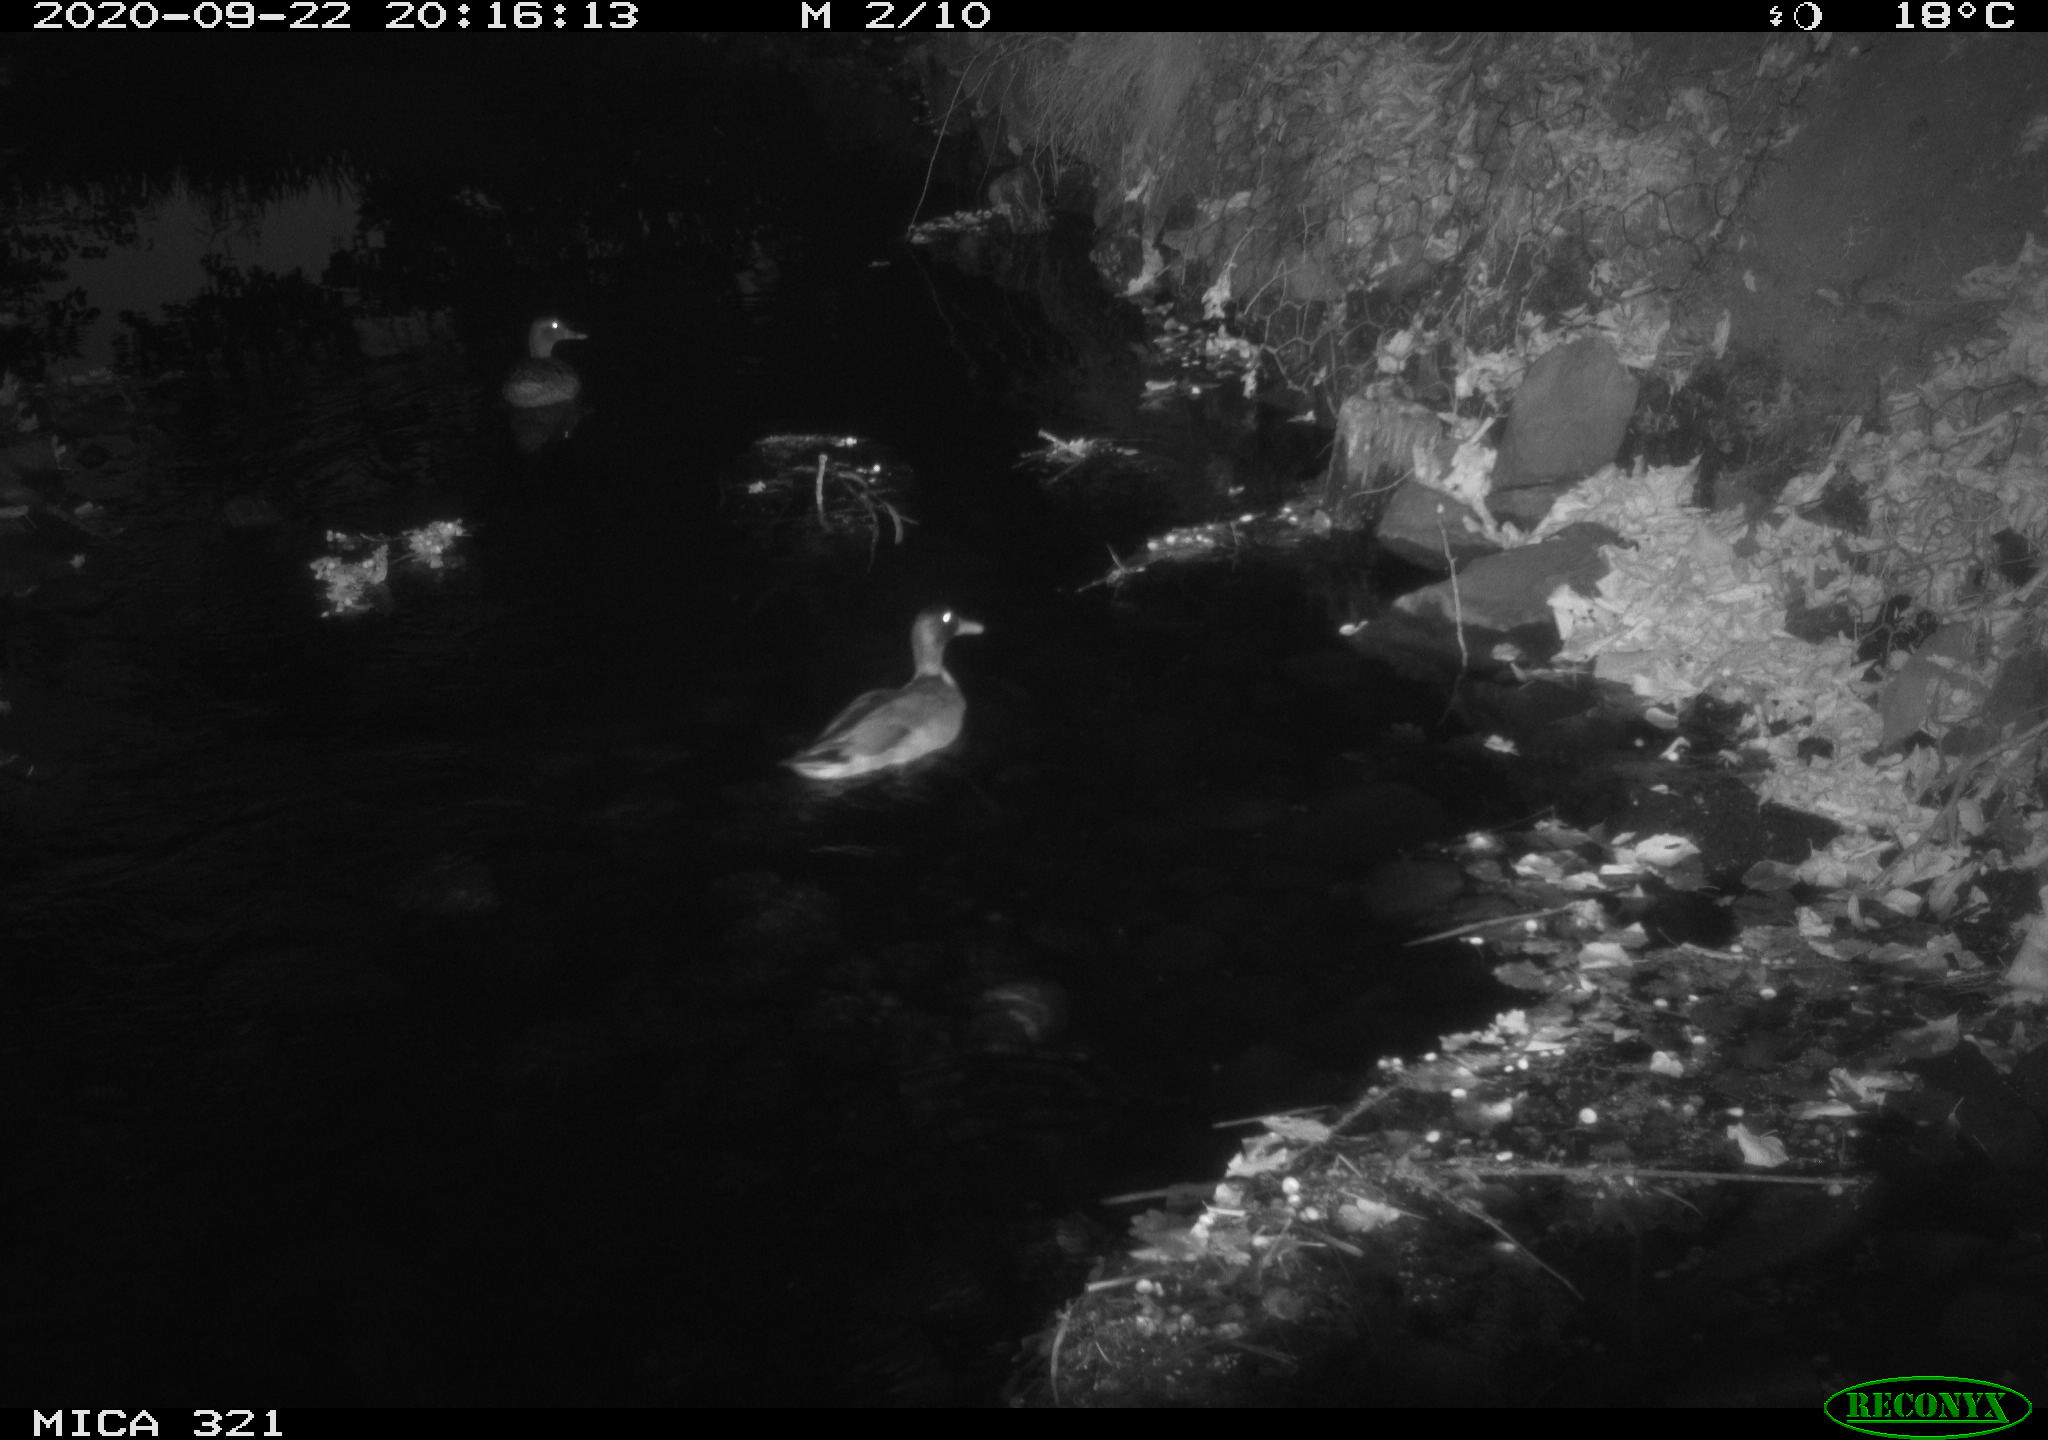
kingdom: Animalia
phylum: Chordata
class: Aves
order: Anseriformes
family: Anatidae
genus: Anas
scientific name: Anas platyrhynchos
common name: Mallard
